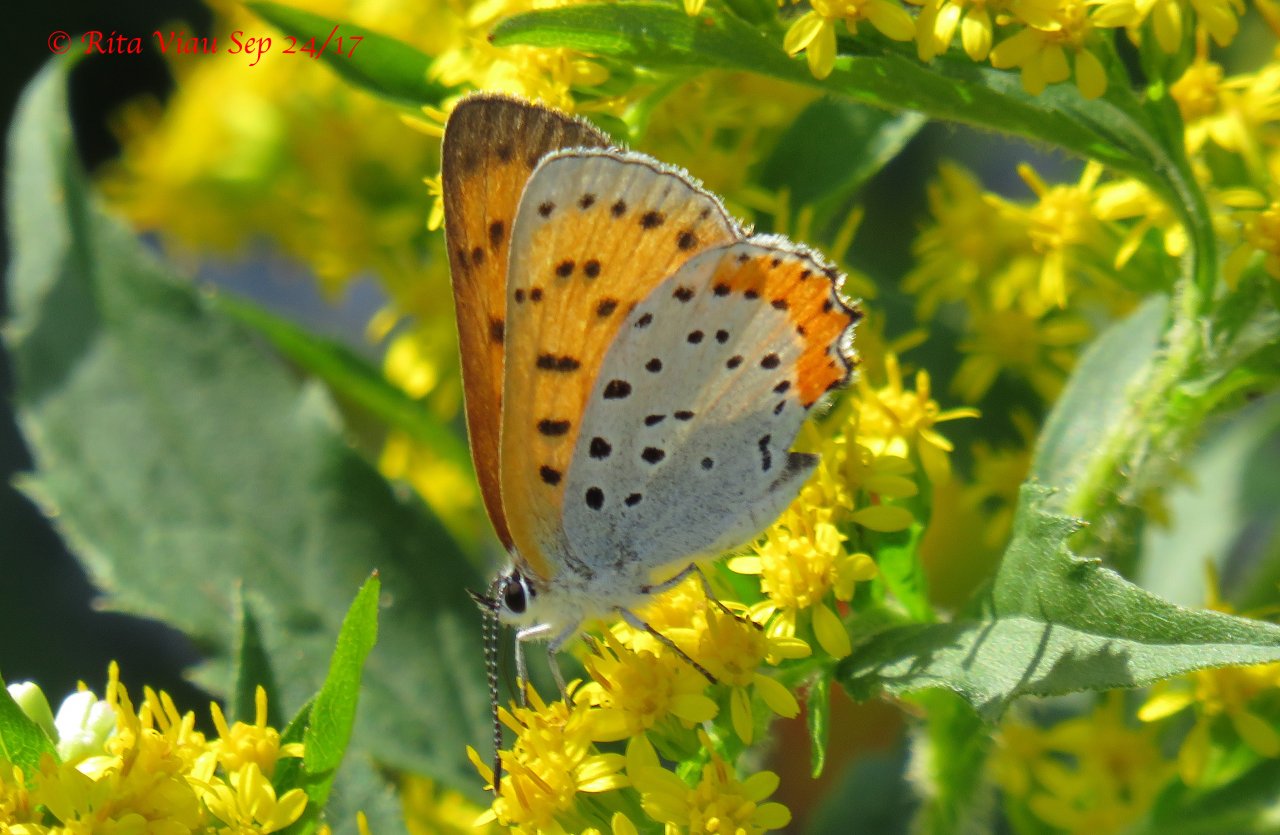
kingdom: Animalia
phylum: Arthropoda
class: Insecta
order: Lepidoptera
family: Sesiidae
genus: Sesia
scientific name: Sesia Lycaena hyllus
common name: Bronze Copper
